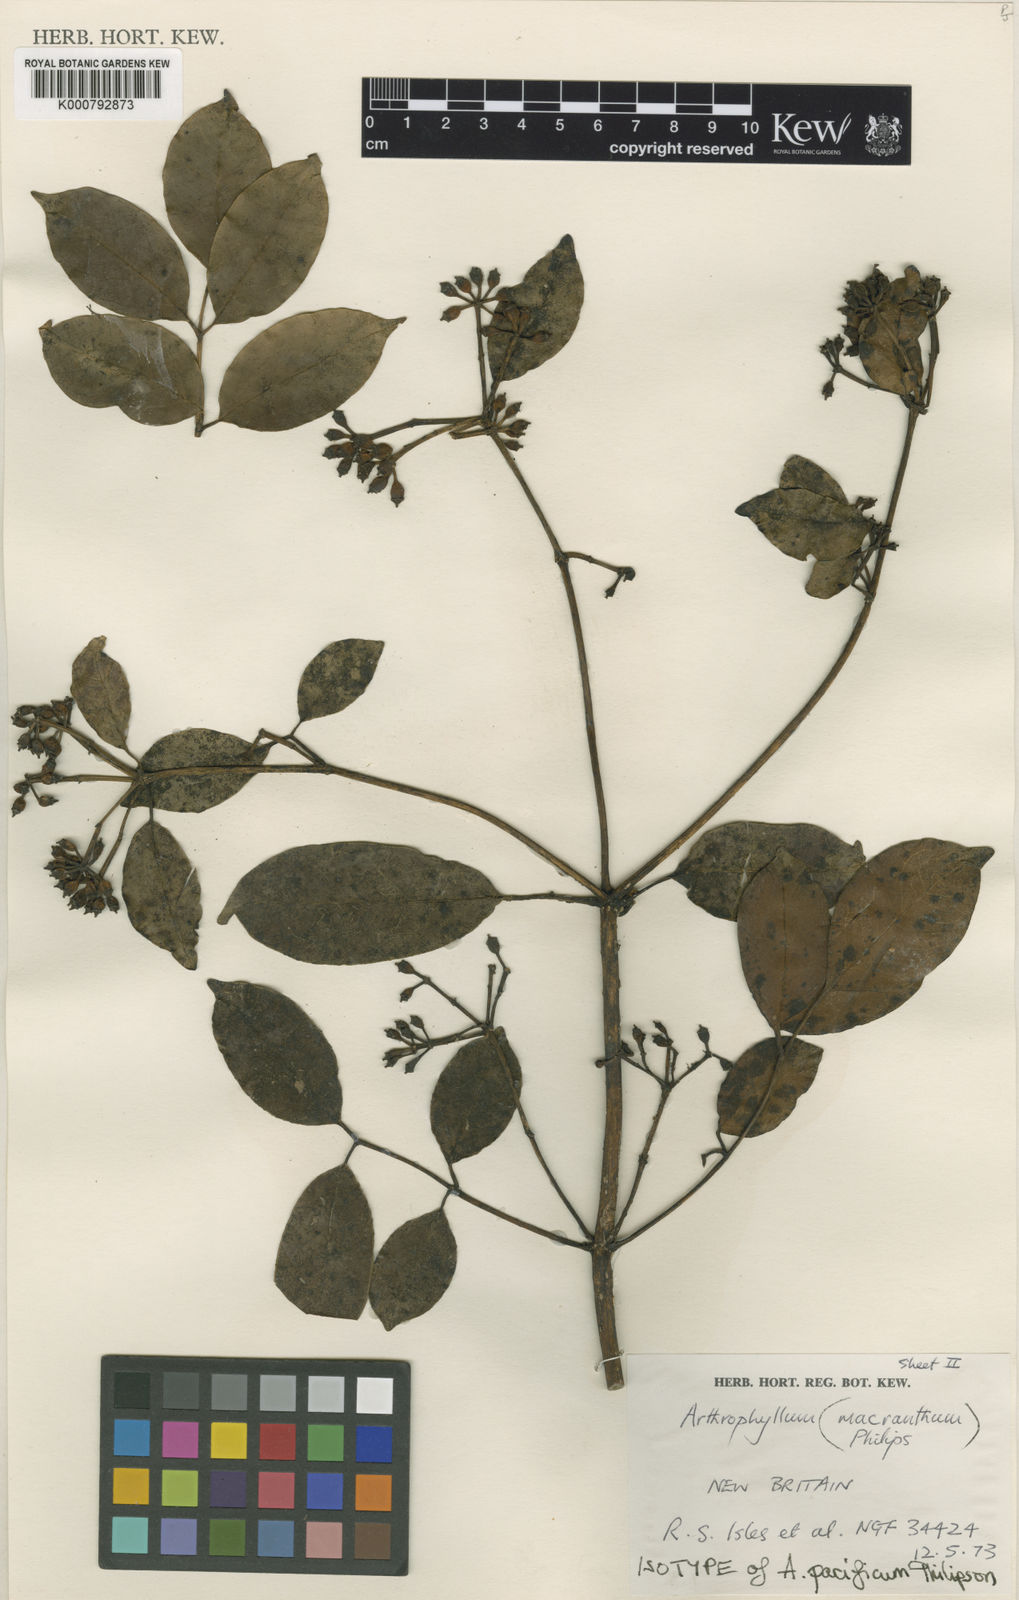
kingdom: Plantae
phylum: Tracheophyta
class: Magnoliopsida
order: Apiales
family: Araliaceae
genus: Polyscias
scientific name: Polyscias macranthum
